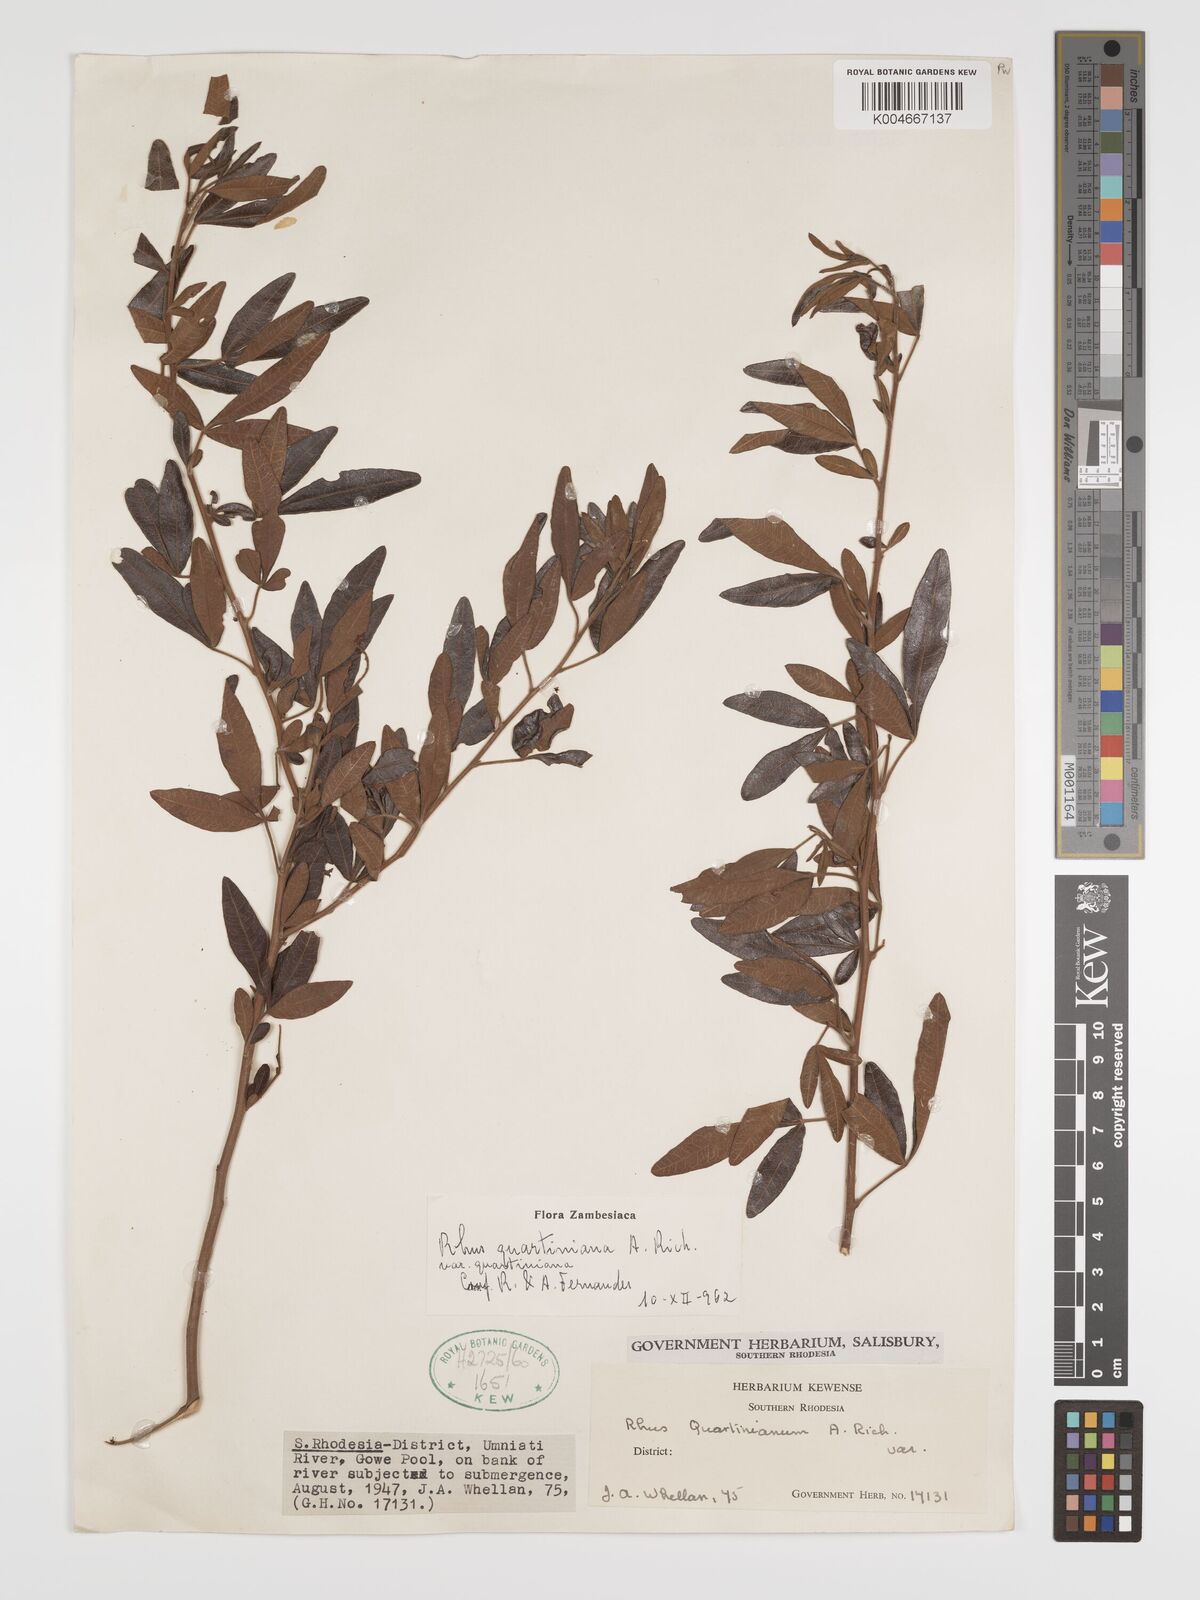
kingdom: Plantae
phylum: Tracheophyta
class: Magnoliopsida
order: Sapindales
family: Anacardiaceae
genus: Searsia
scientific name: Searsia quartiniana
